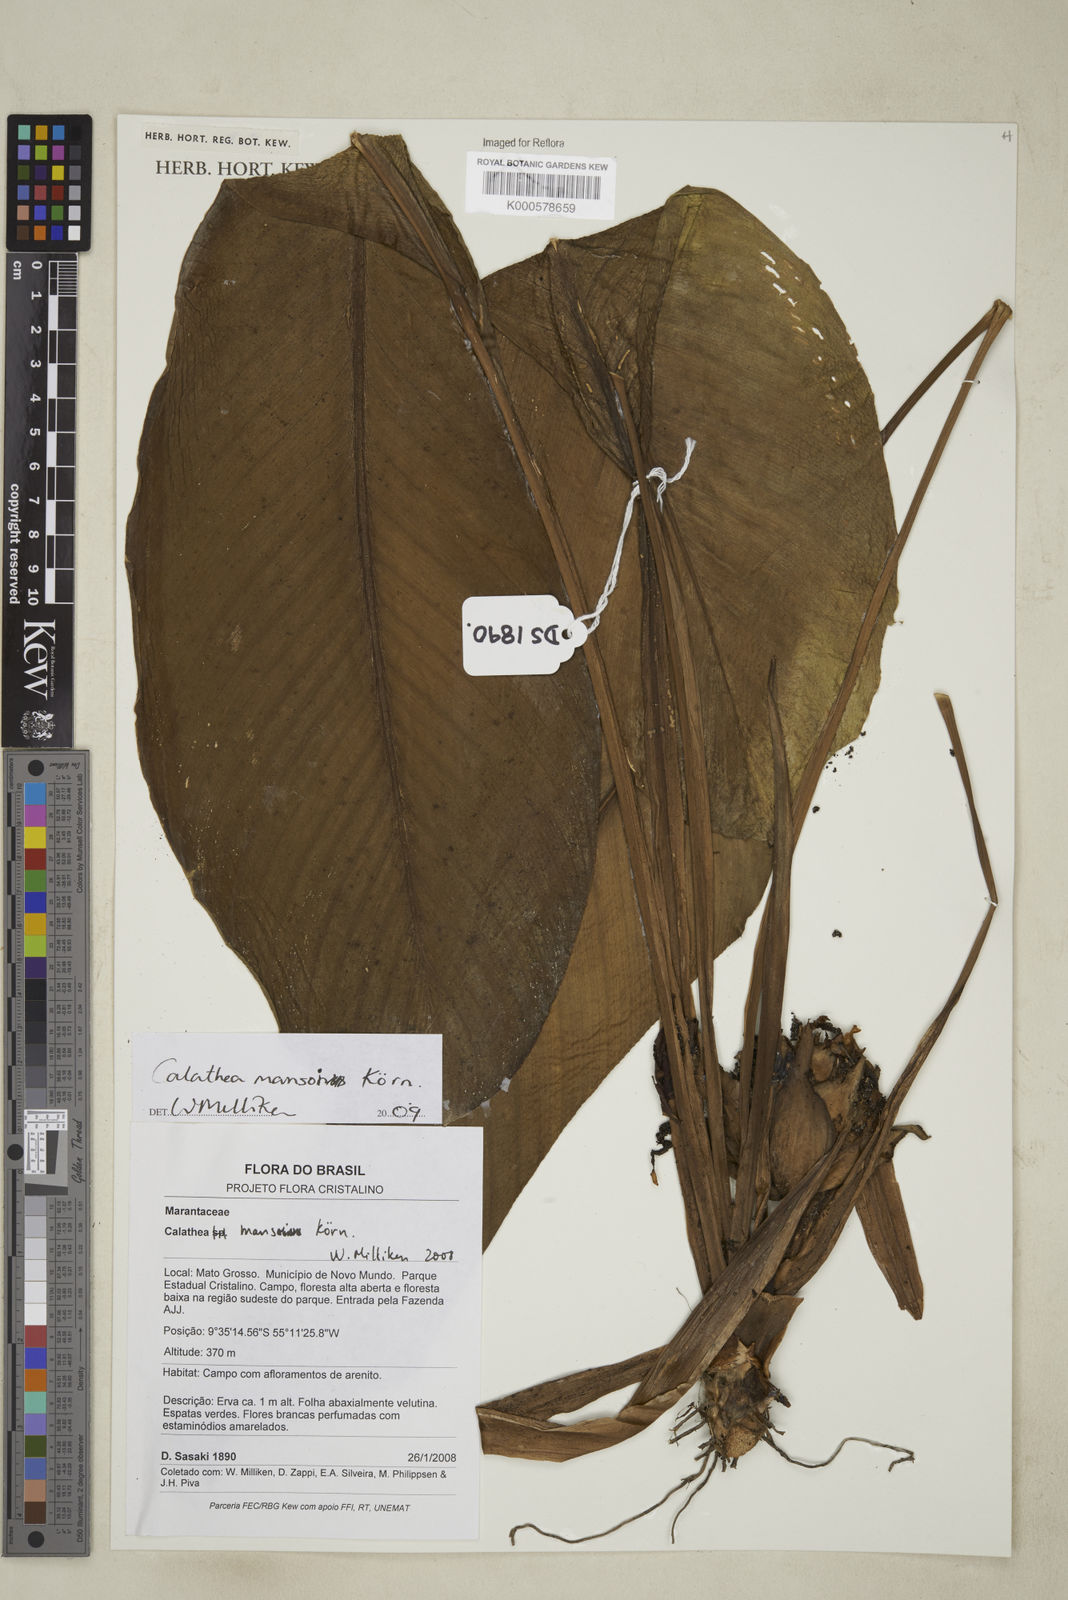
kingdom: Plantae
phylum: Tracheophyta
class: Liliopsida
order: Zingiberales
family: Marantaceae
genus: Calathea
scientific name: Calathea
